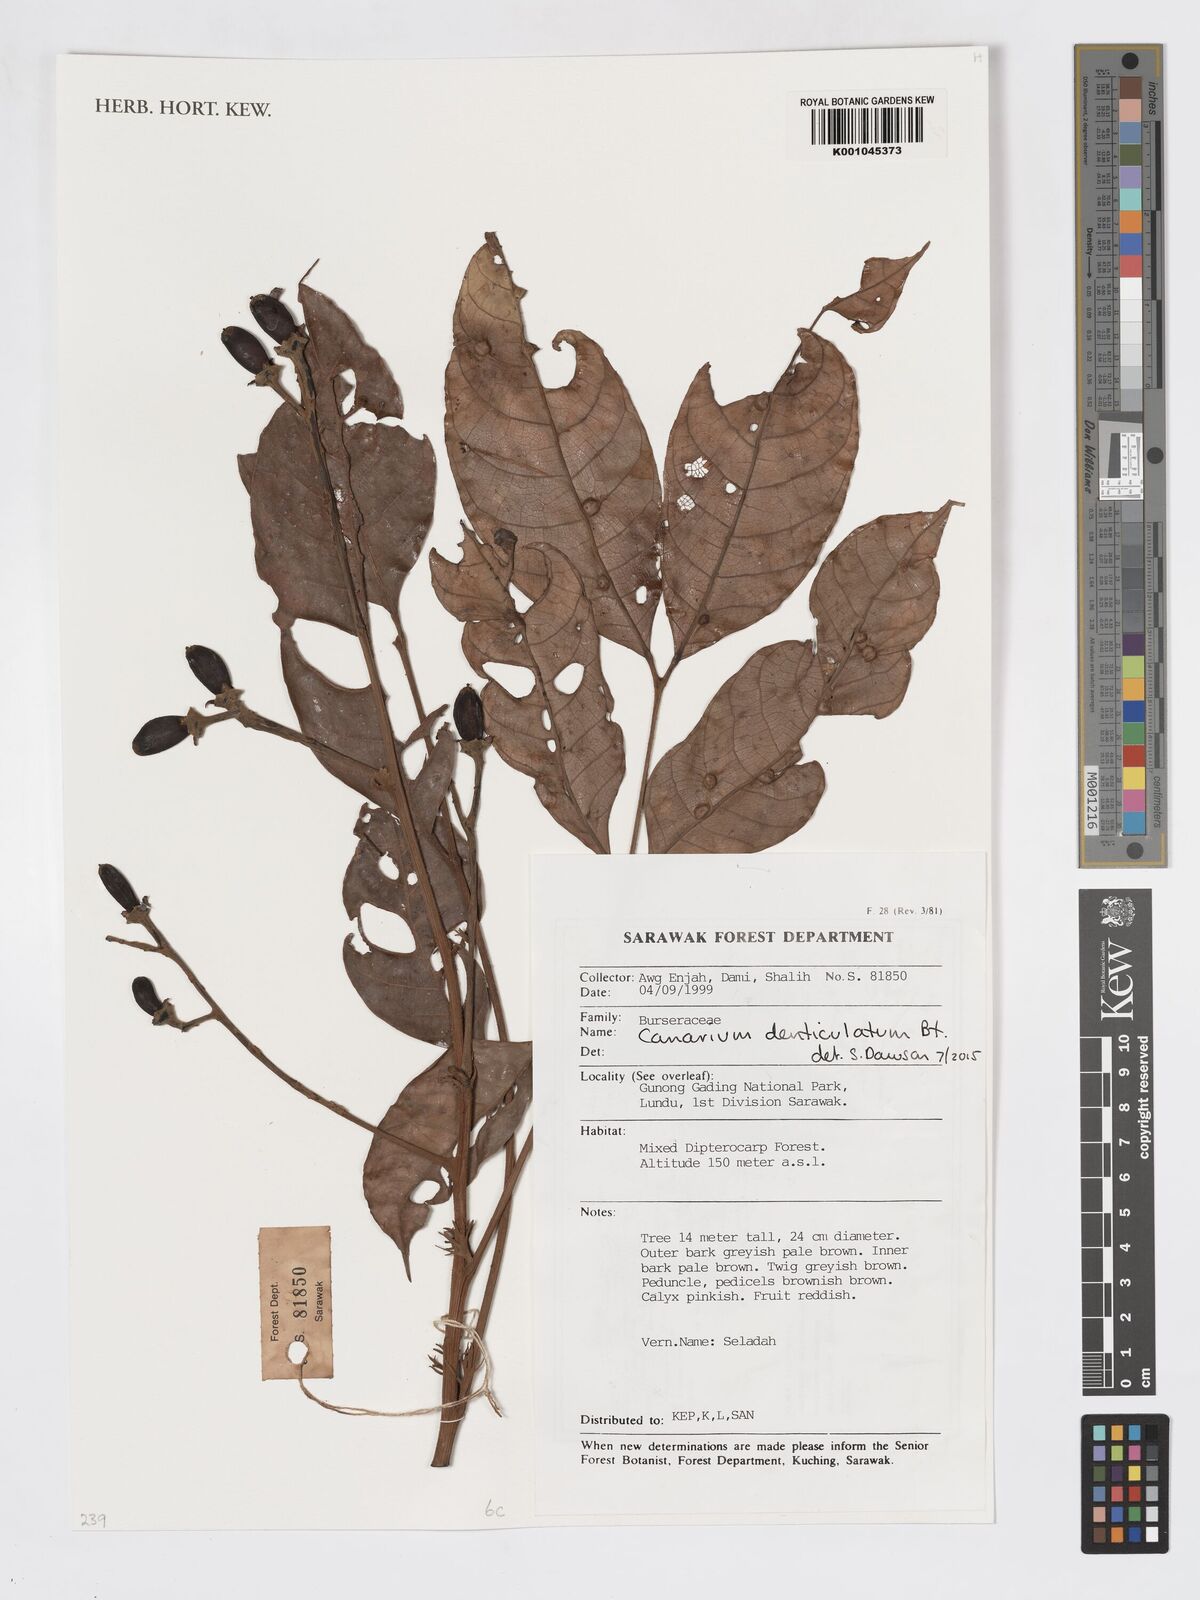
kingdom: Plantae
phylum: Tracheophyta
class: Magnoliopsida
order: Sapindales
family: Burseraceae
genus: Canarium
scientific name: Canarium denticulatum
